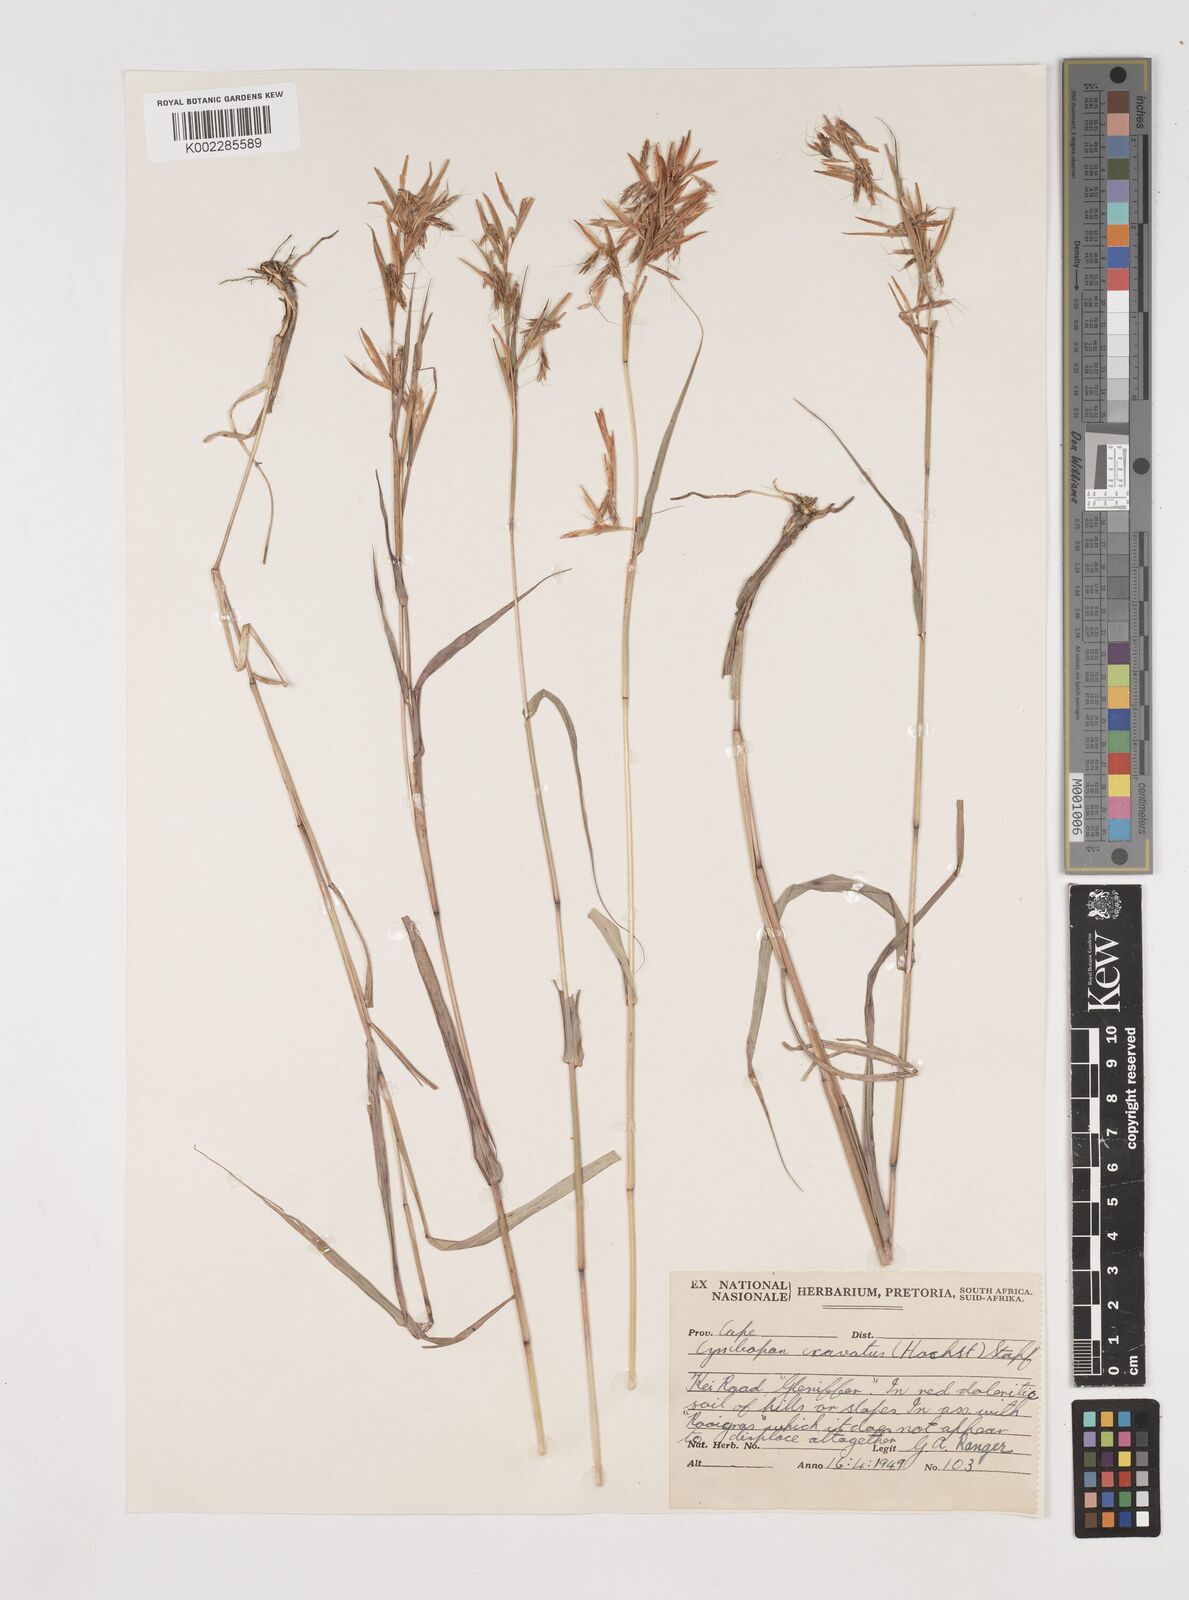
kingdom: Plantae
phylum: Tracheophyta
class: Liliopsida
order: Poales
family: Poaceae
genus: Cymbopogon
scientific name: Cymbopogon caesius
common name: Kachi grass
